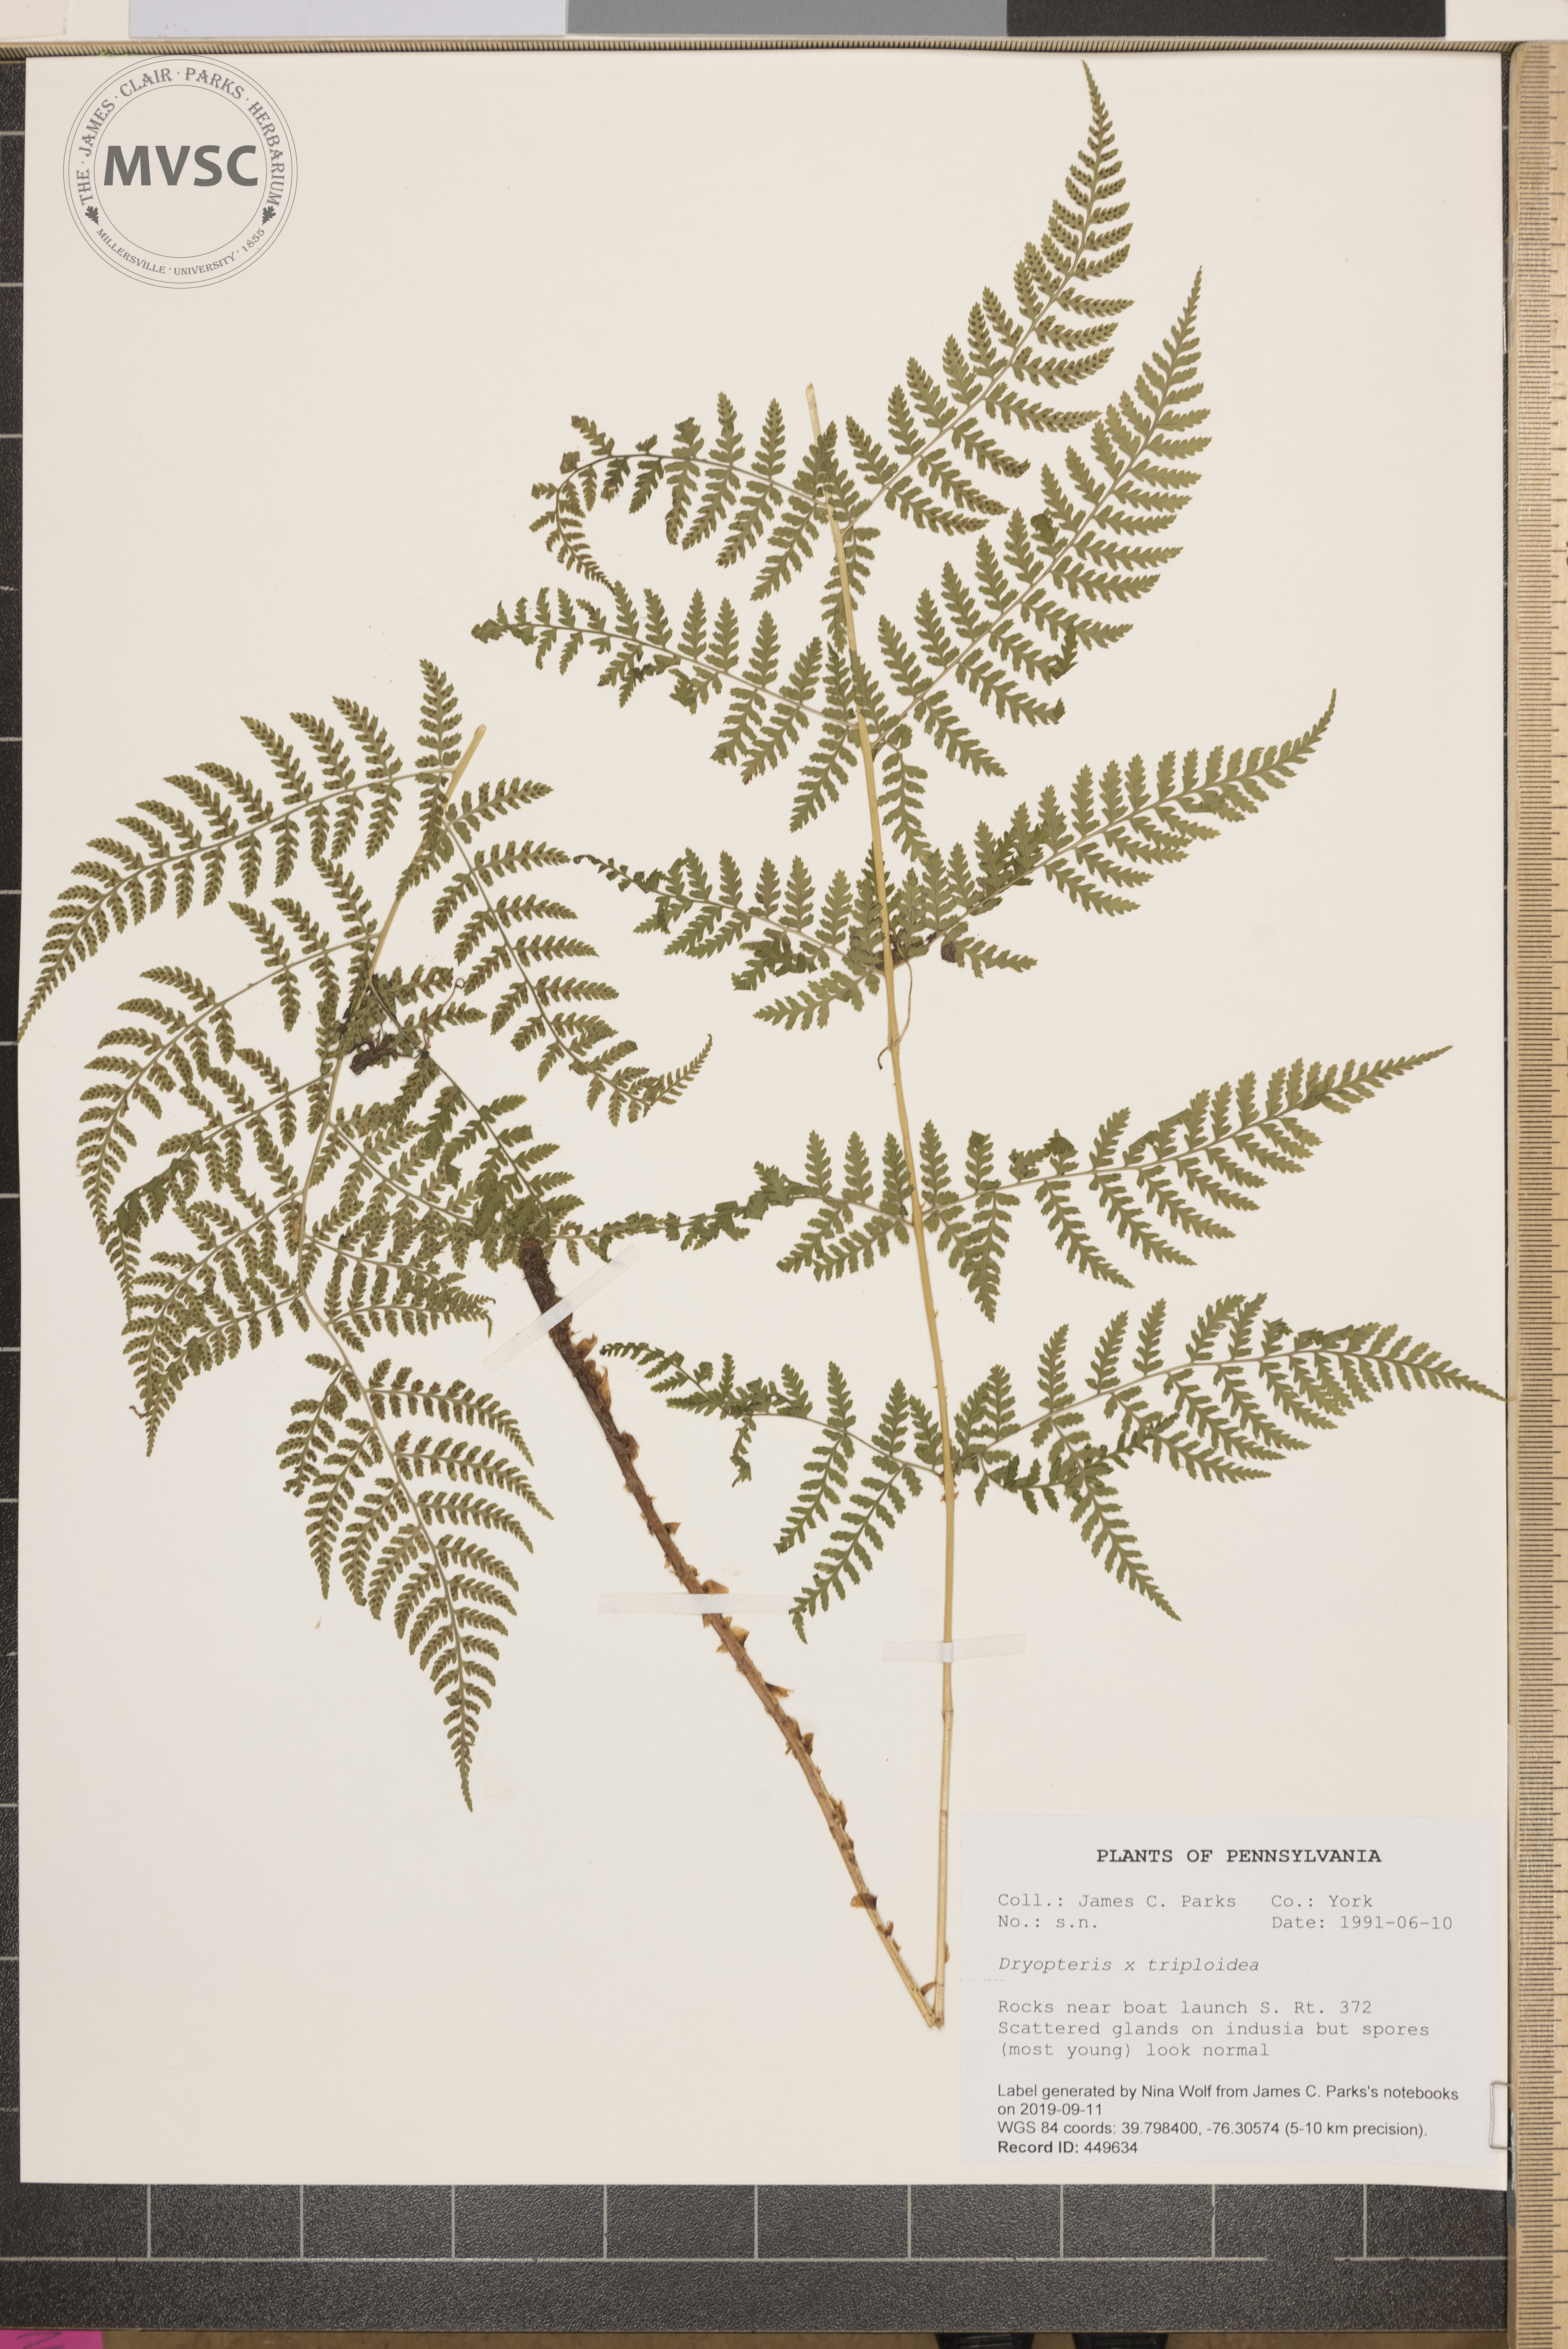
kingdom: Plantae
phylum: Tracheophyta
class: Polypodiopsida
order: Polypodiales
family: Dryopteridaceae
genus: Dryopteris
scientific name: Dryopteris triploidea
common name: Fruitful wood fern
